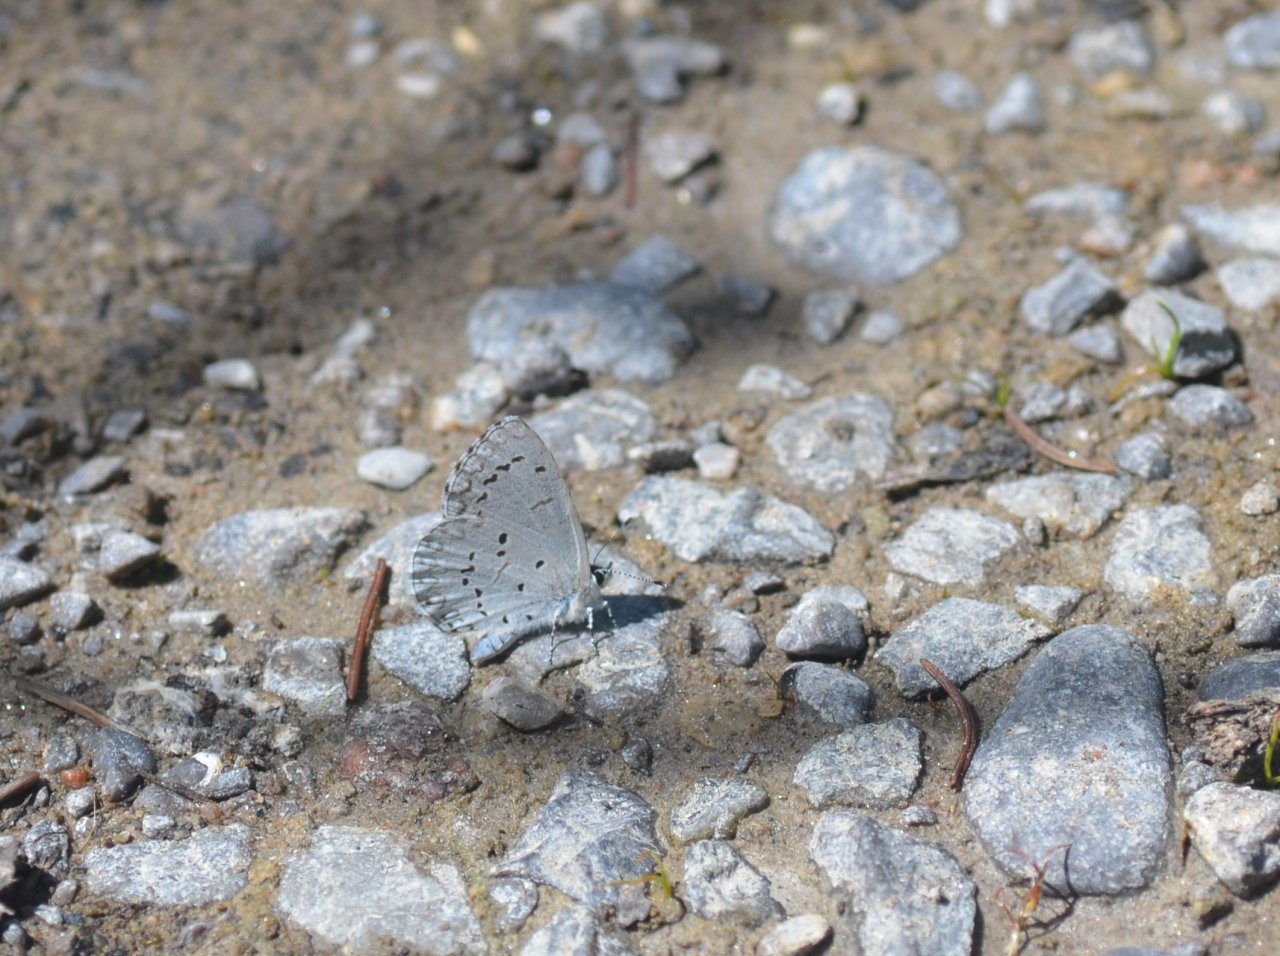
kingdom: Animalia
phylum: Arthropoda
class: Insecta
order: Lepidoptera
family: Lycaenidae
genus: Celastrina
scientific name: Celastrina
